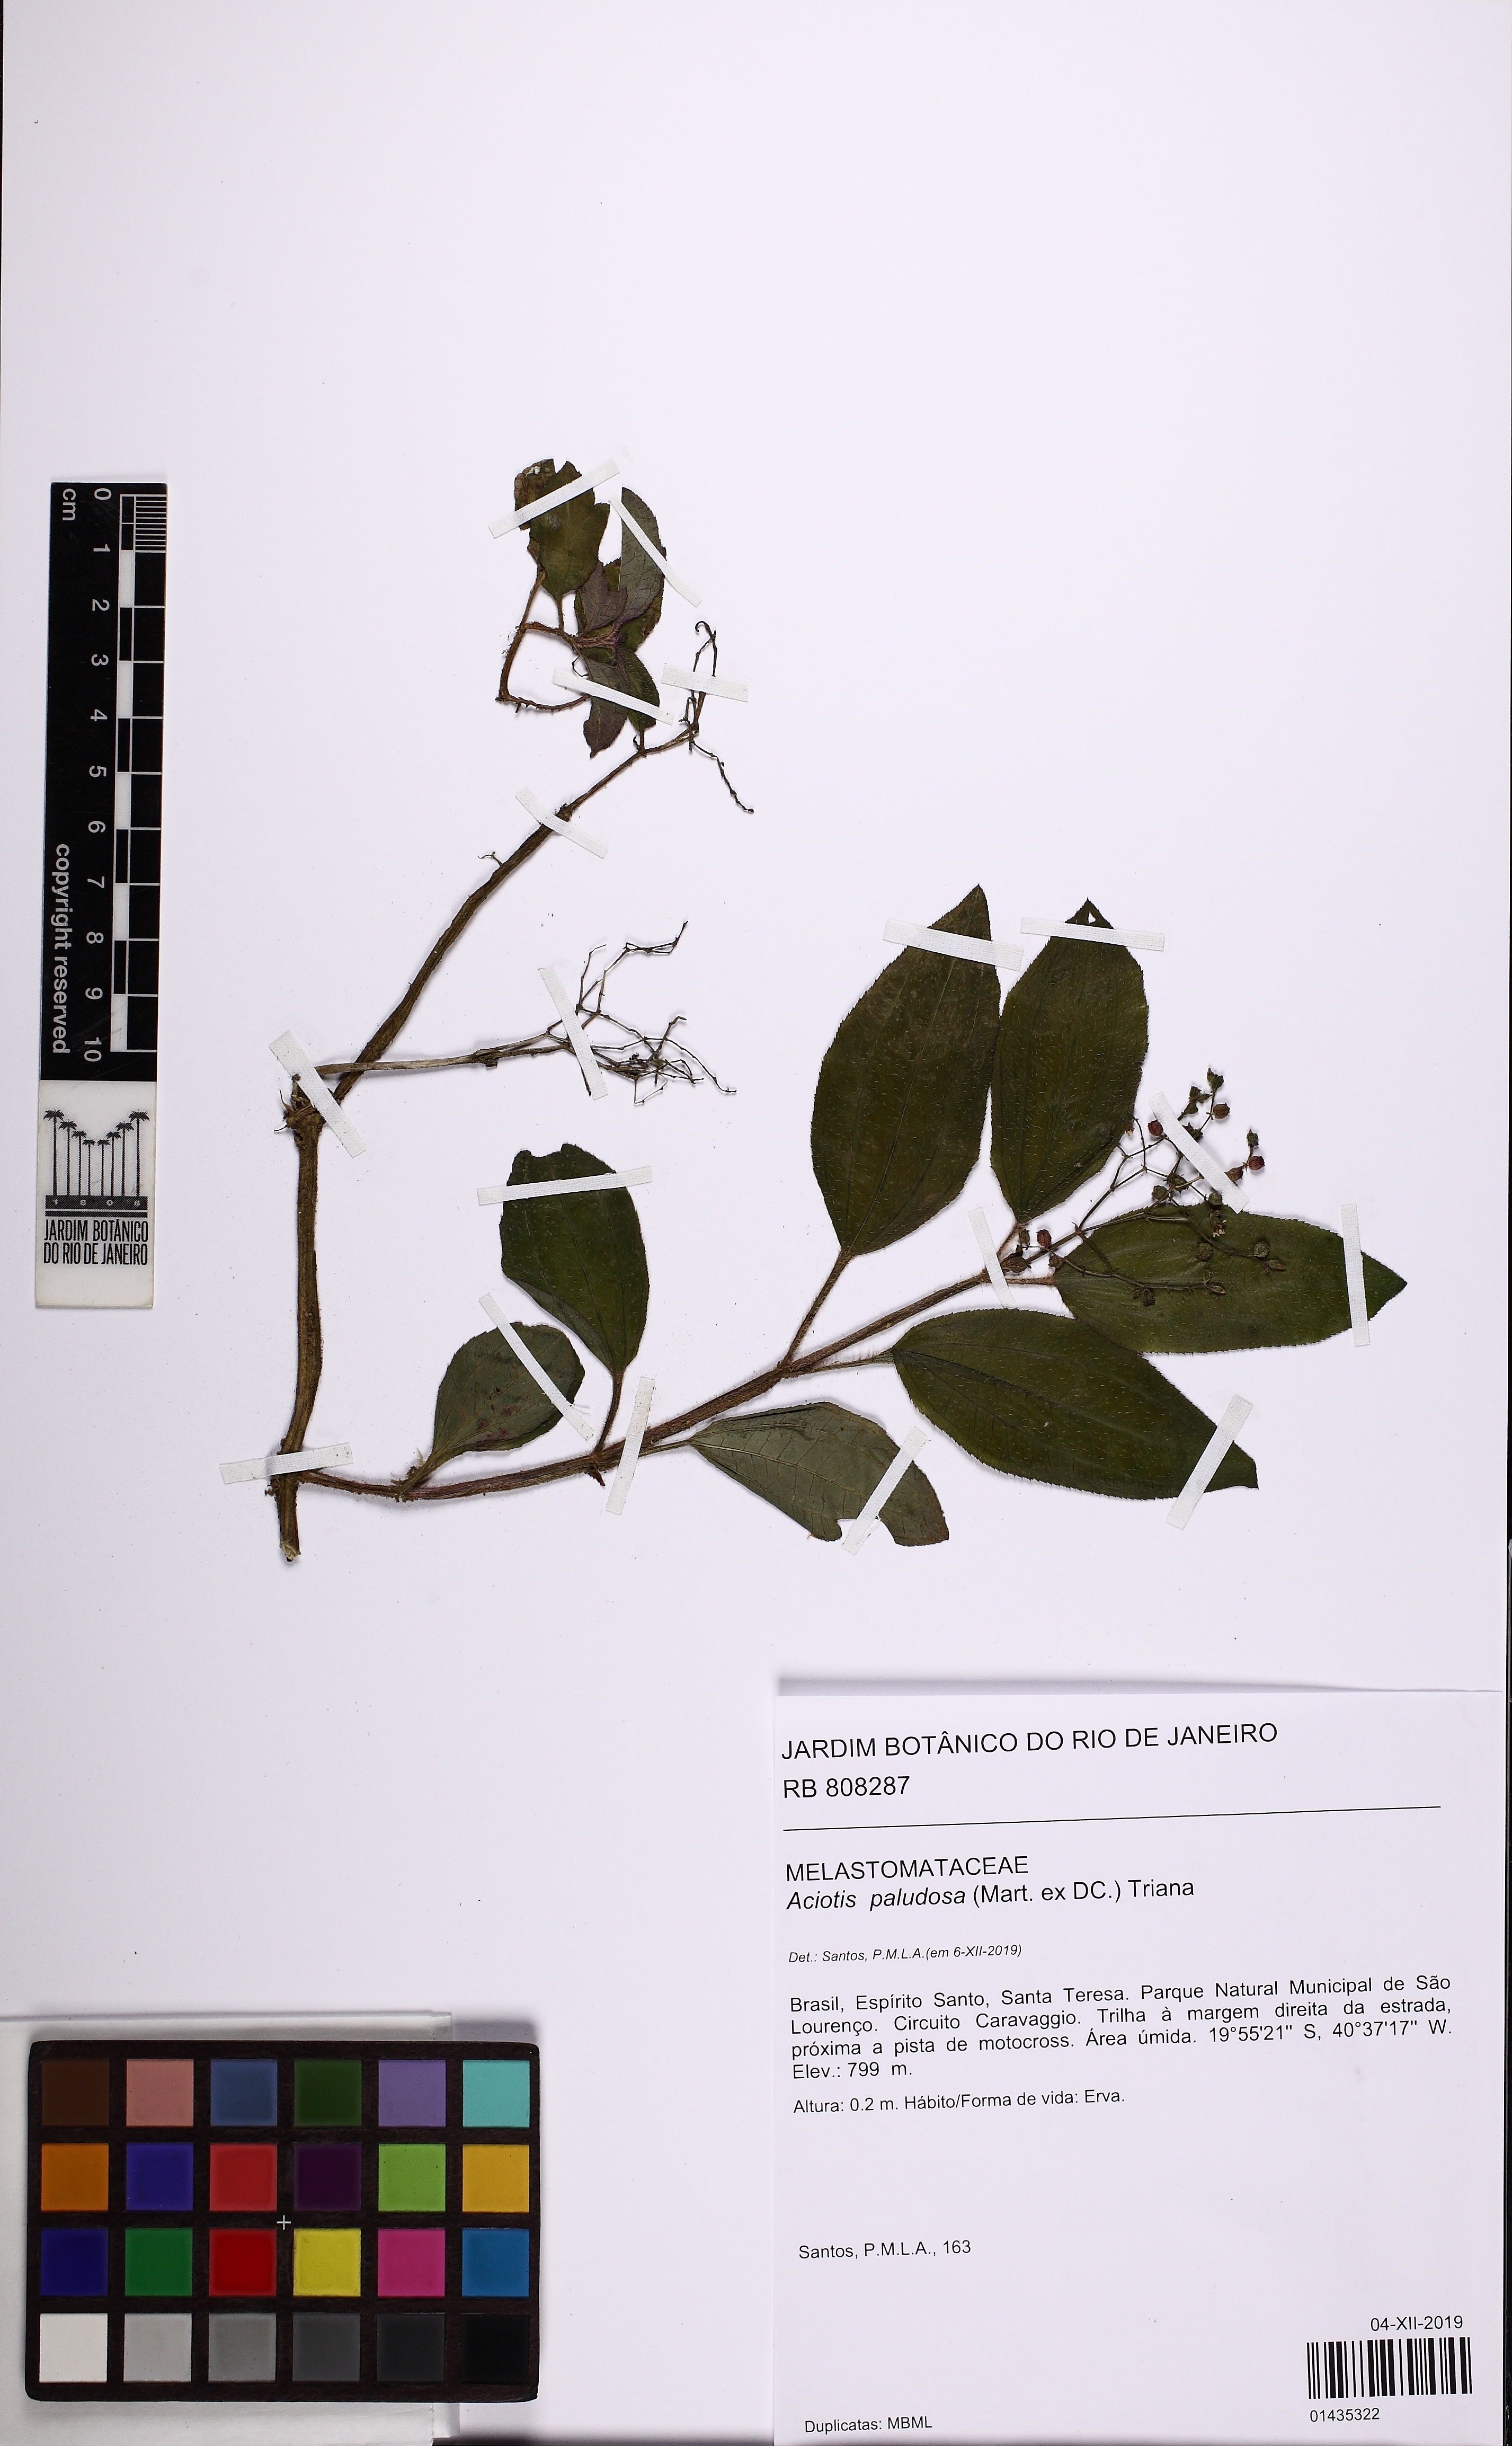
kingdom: Plantae
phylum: Tracheophyta
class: Magnoliopsida
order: Myrtales
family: Melastomataceae
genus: Aciotis
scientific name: Aciotis paludosa
